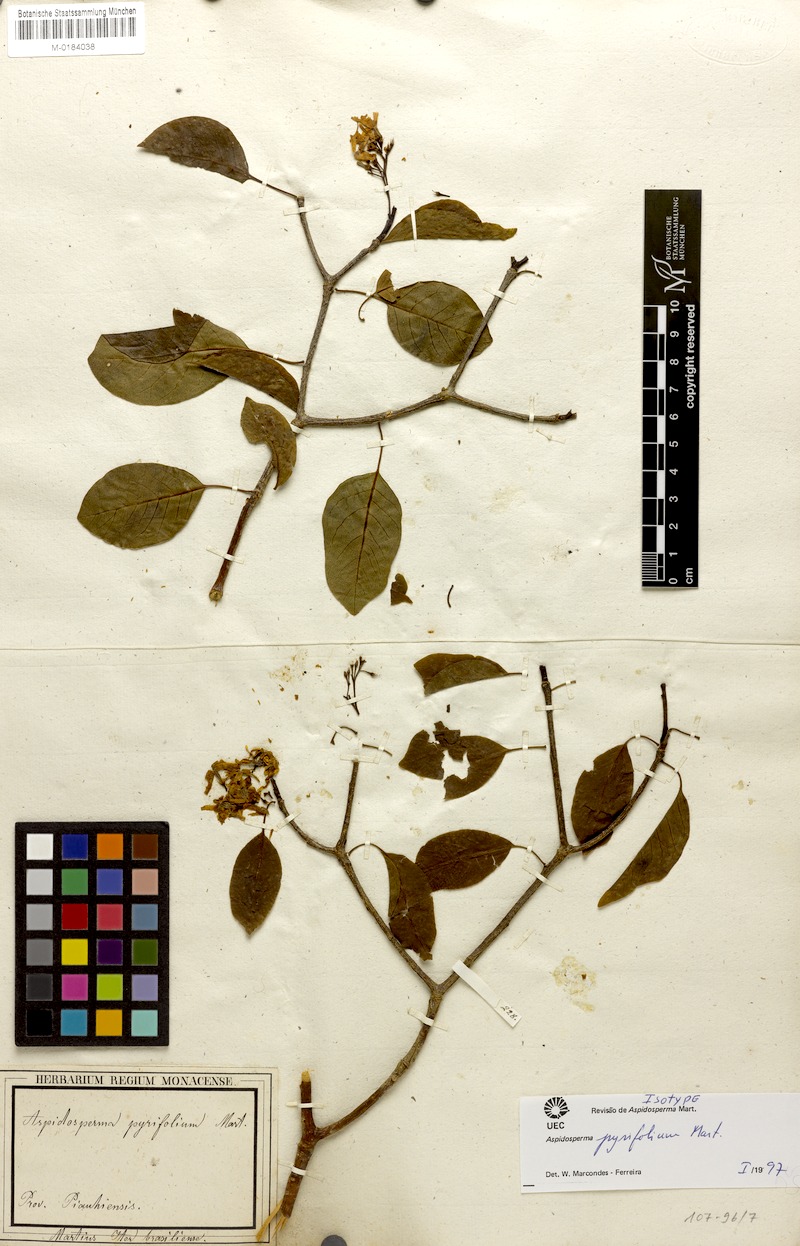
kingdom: Plantae
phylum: Tracheophyta
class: Magnoliopsida
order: Gentianales
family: Apocynaceae
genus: Aspidosperma
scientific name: Aspidosperma pyrifolium
